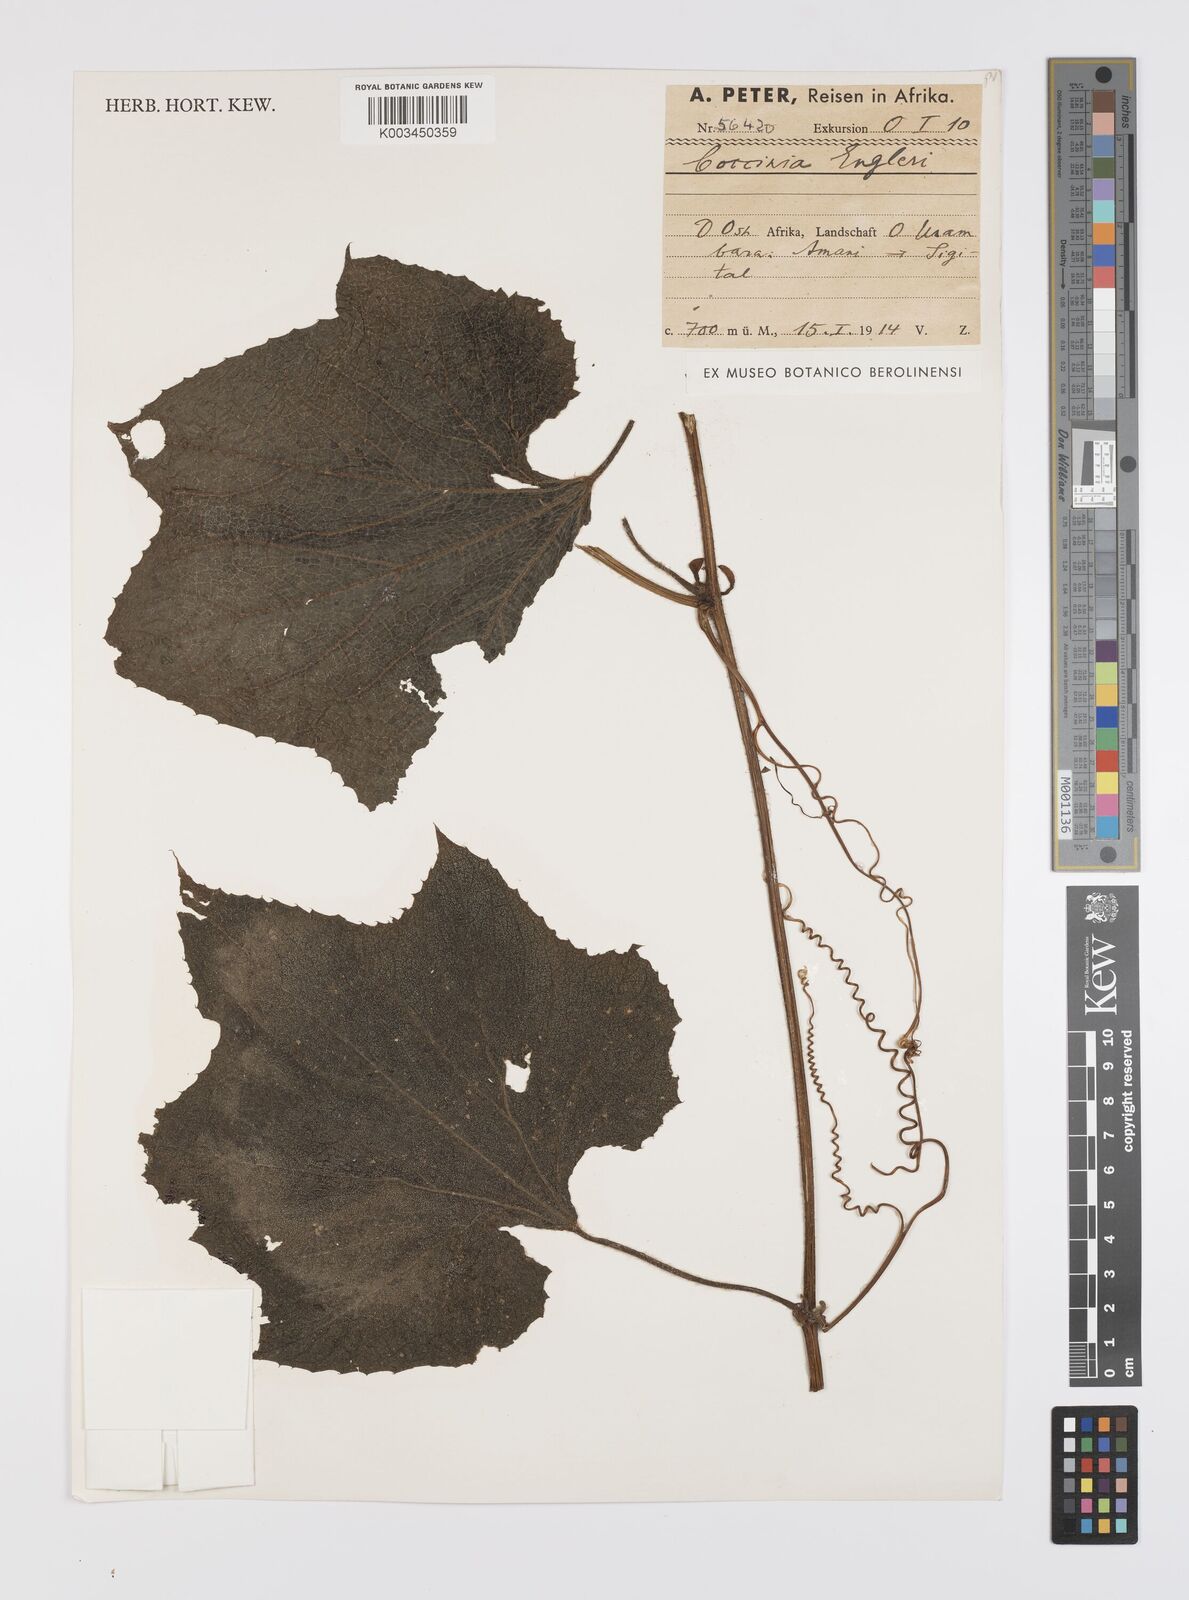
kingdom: Plantae
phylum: Tracheophyta
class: Magnoliopsida
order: Cucurbitales
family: Cucurbitaceae
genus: Peponium
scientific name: Peponium vogelii
